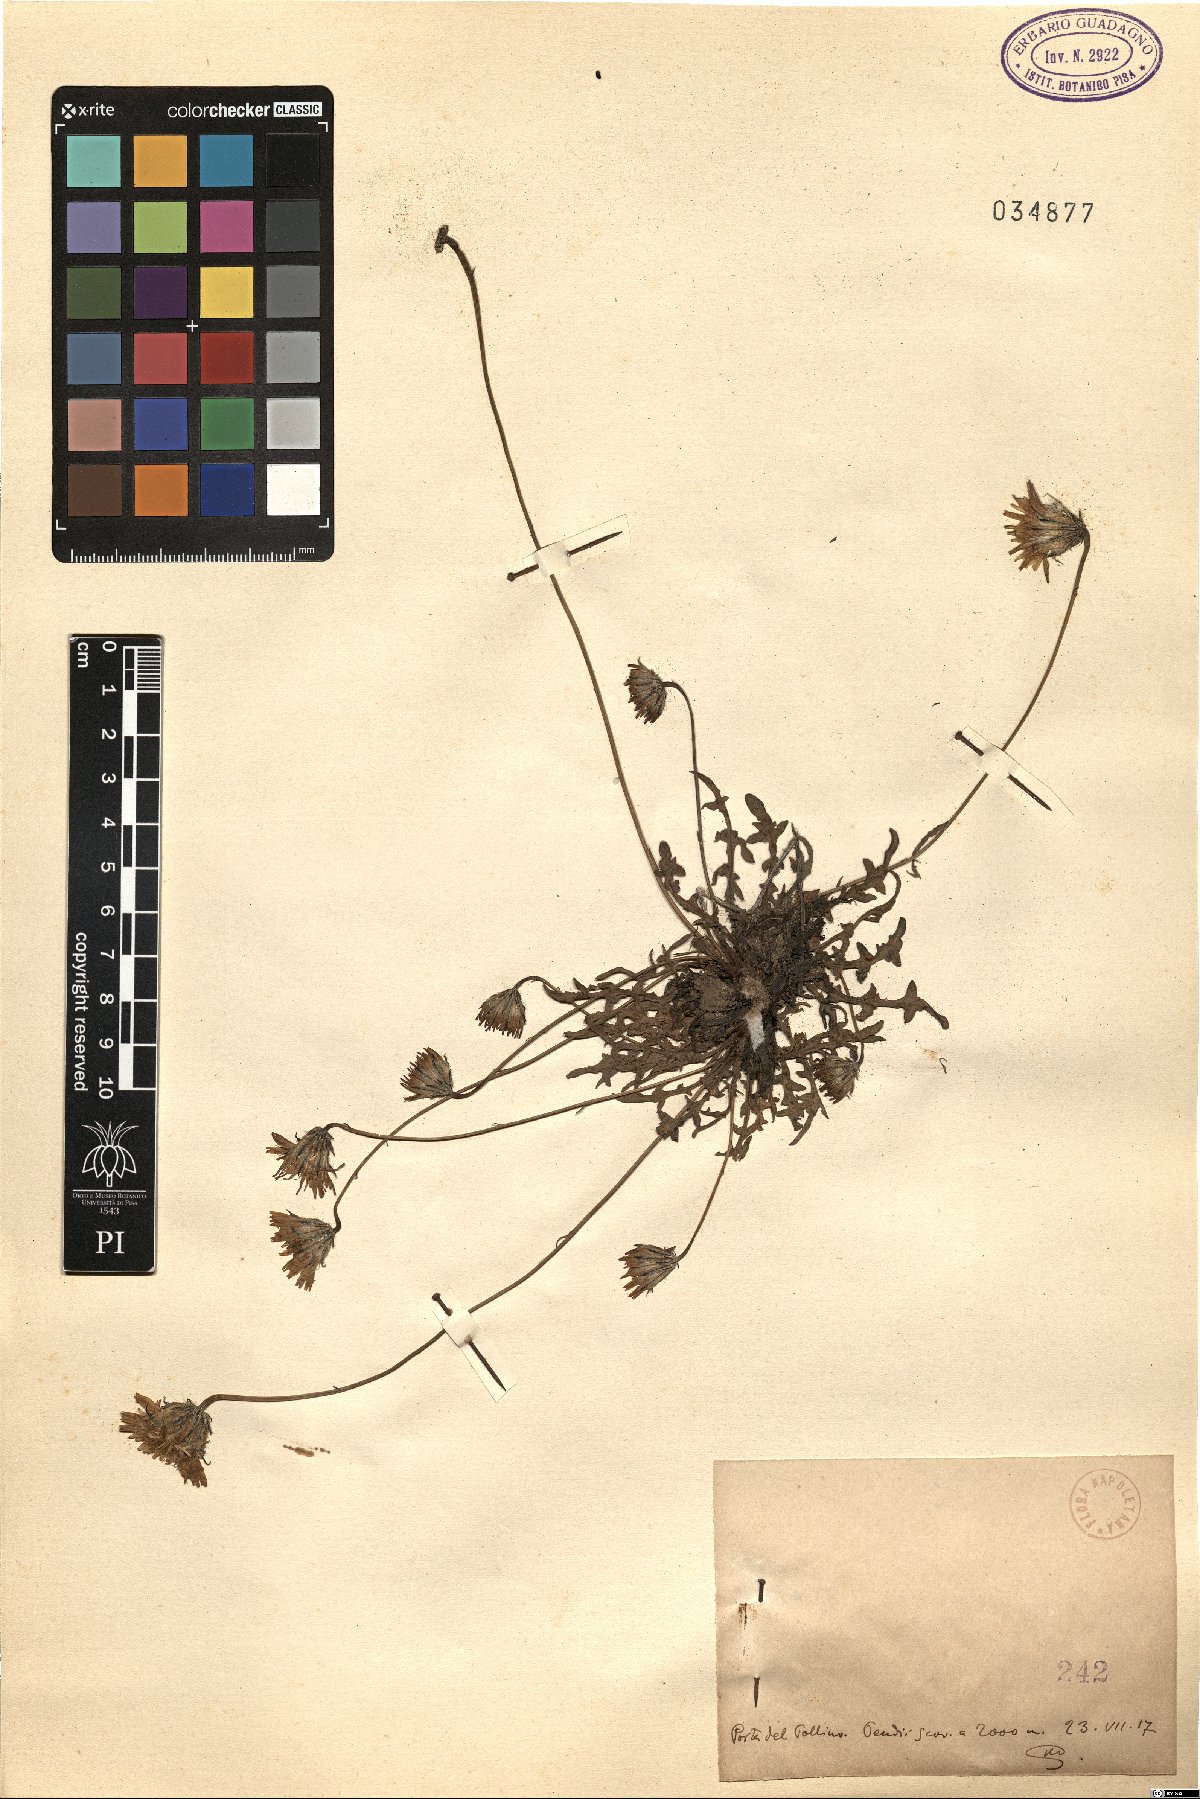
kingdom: Plantae
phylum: Tracheophyta
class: Magnoliopsida
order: Asterales
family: Asteraceae
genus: Hypochaeris
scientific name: Hypochaeris
